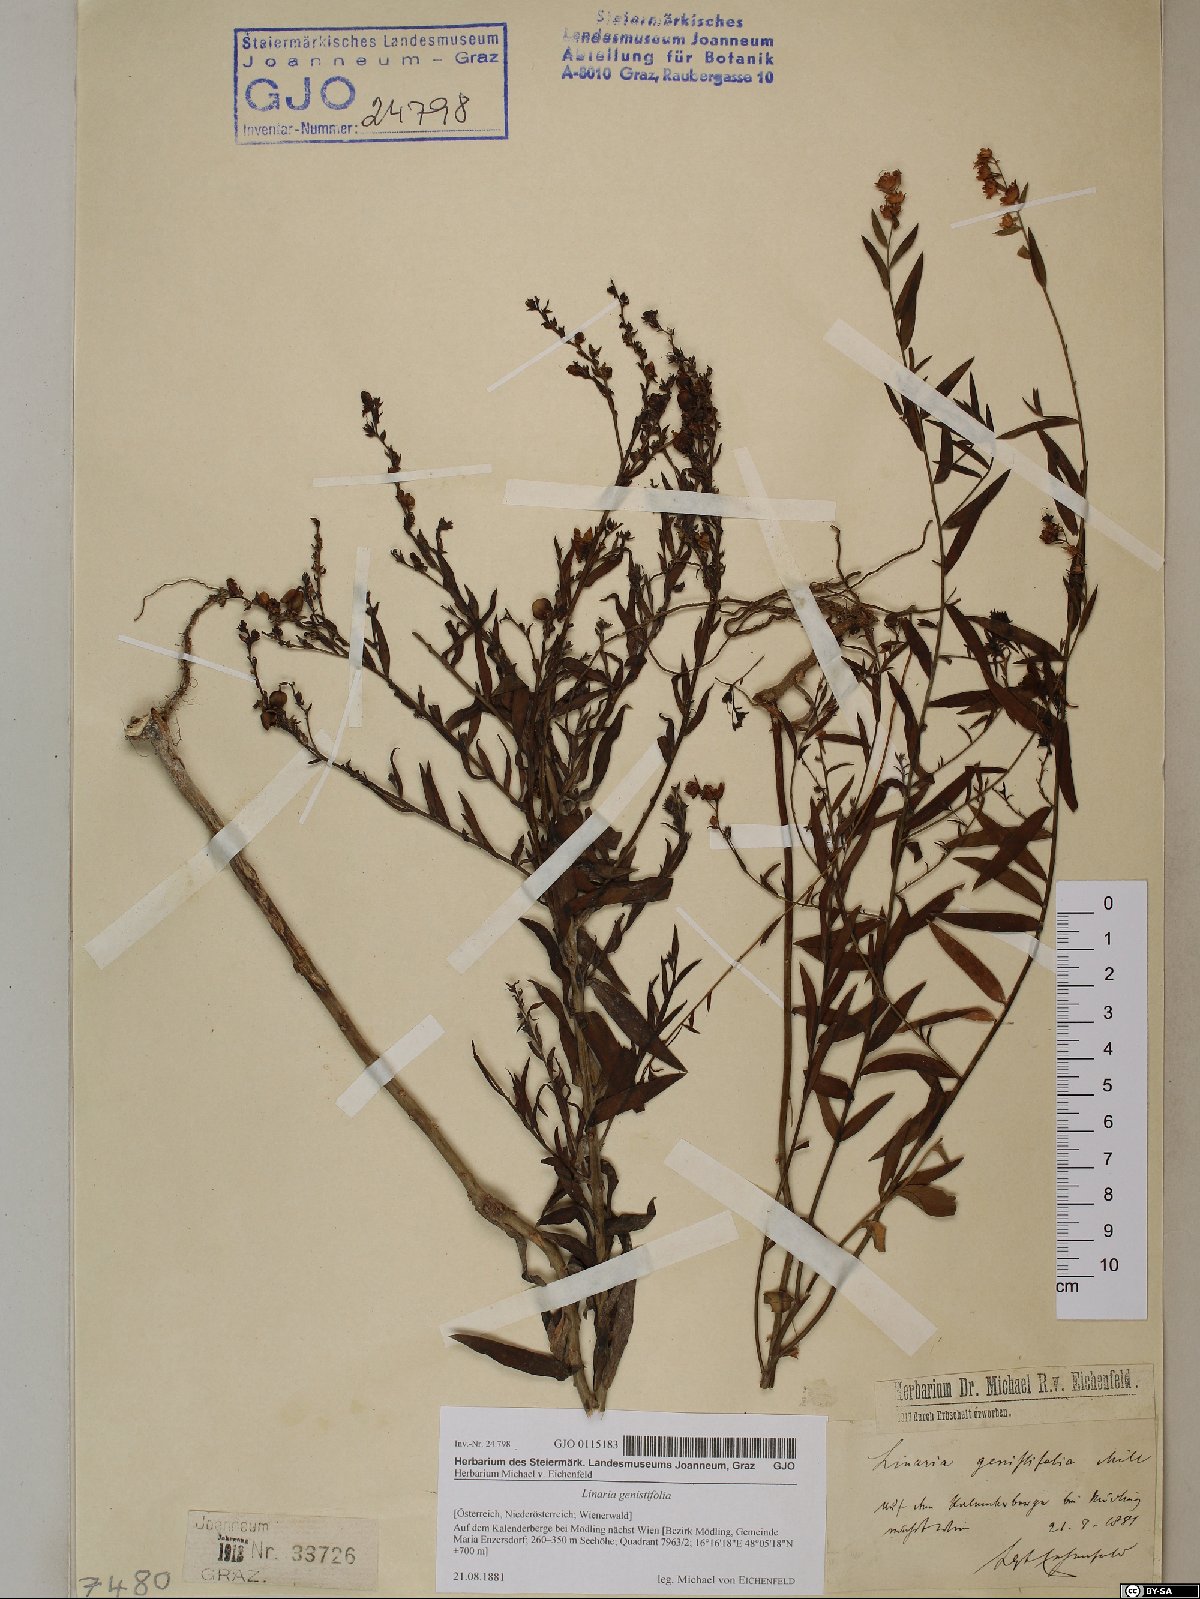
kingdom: Plantae
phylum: Tracheophyta
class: Magnoliopsida
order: Lamiales
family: Plantaginaceae
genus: Linaria
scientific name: Linaria genistifolia
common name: Broomleaf toadflax
